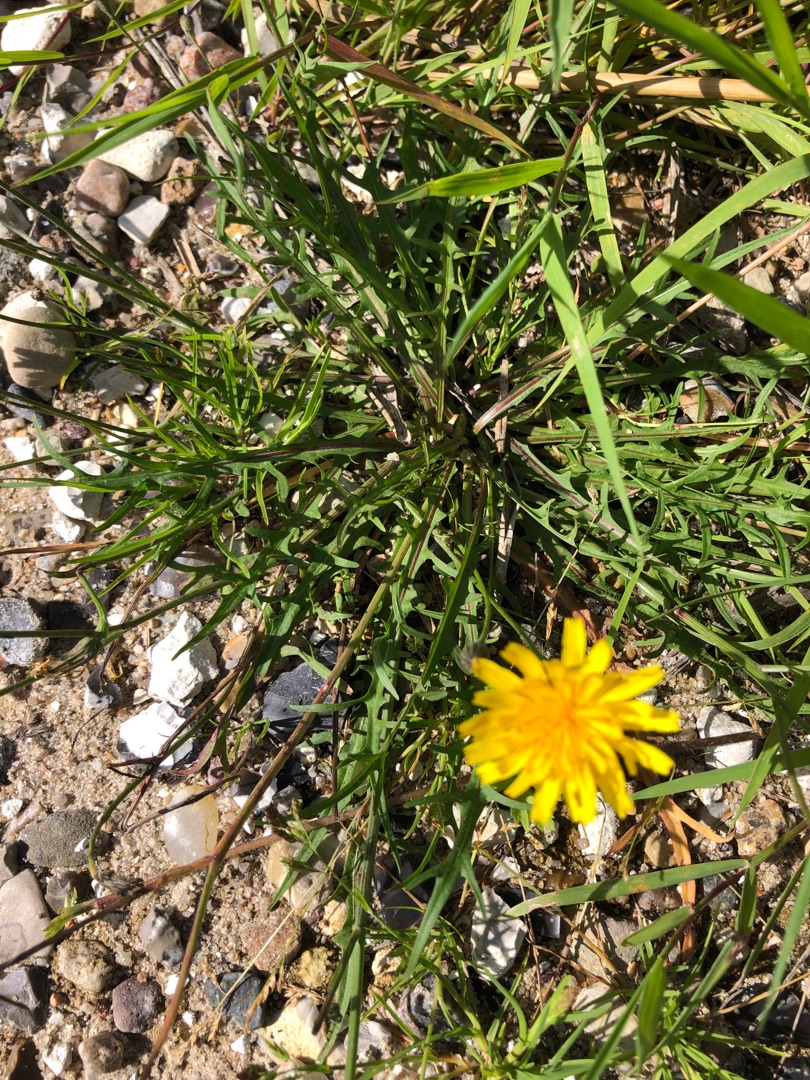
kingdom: Plantae
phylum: Tracheophyta
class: Magnoliopsida
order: Asterales
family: Asteraceae
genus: Scorzoneroides
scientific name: Scorzoneroides autumnalis
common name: Høst-borst
